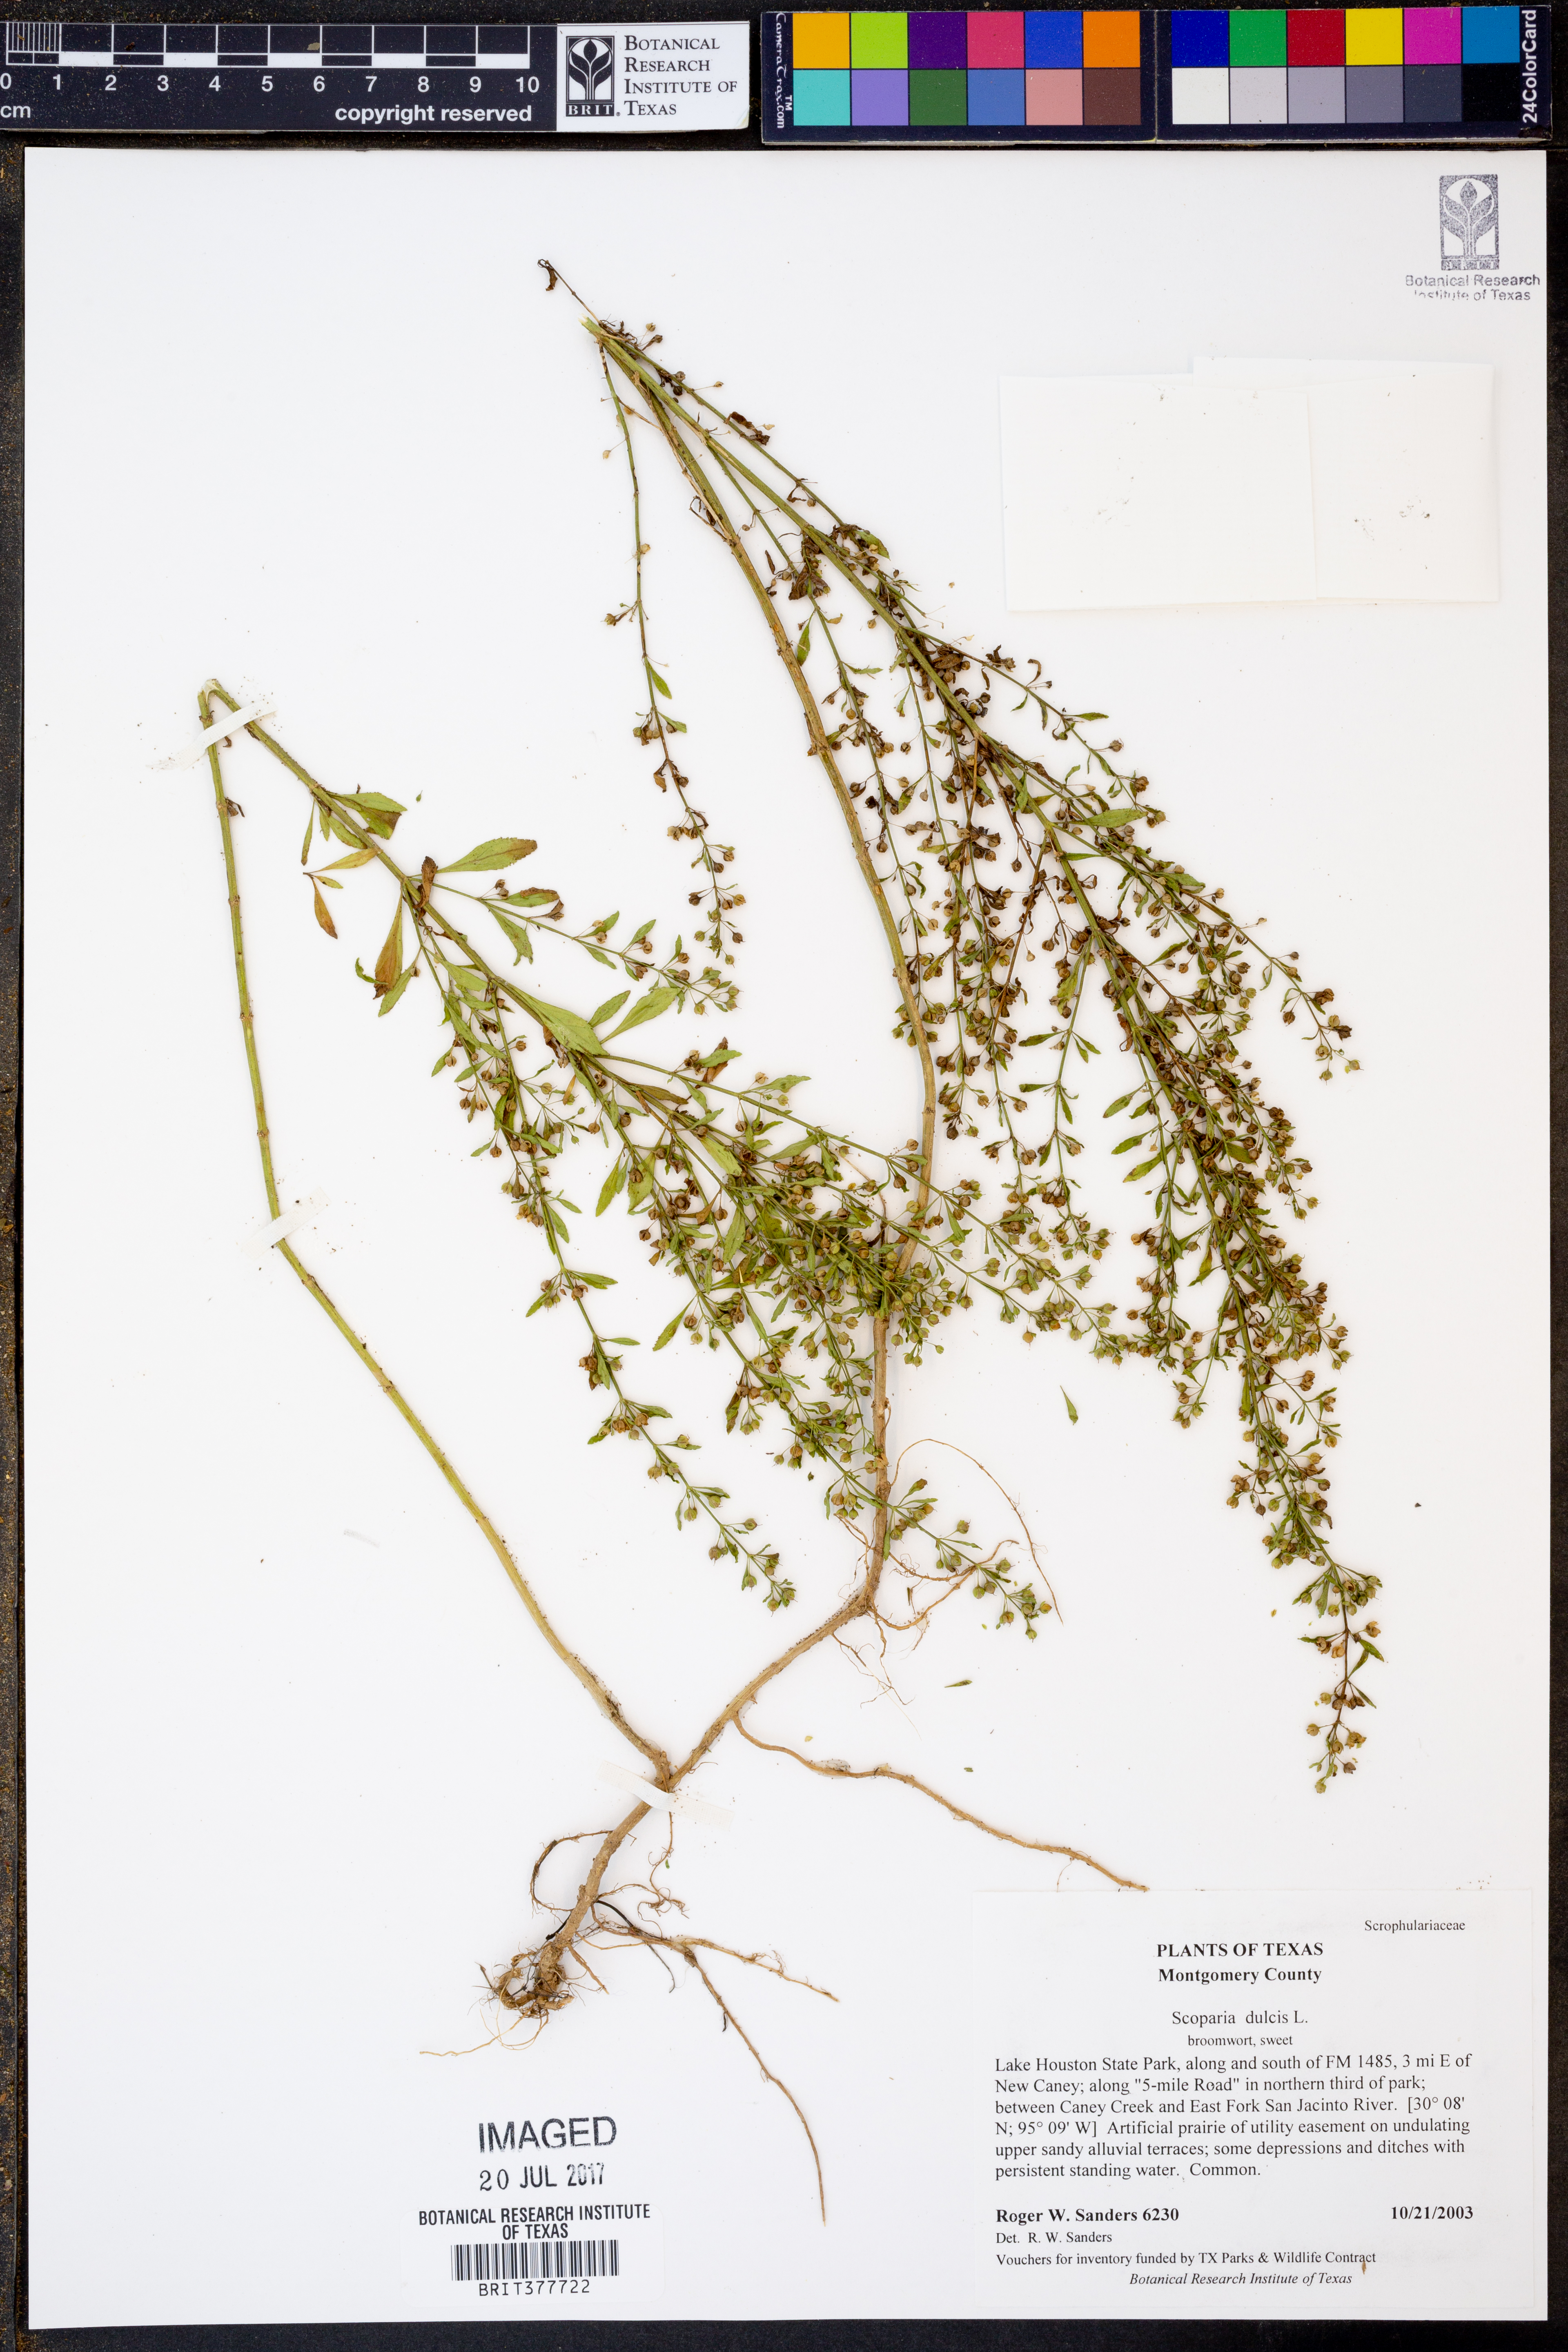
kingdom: Plantae
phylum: Tracheophyta
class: Magnoliopsida
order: Lamiales
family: Plantaginaceae
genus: Scoparia
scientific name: Scoparia dulcis
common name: Scoparia-weed
